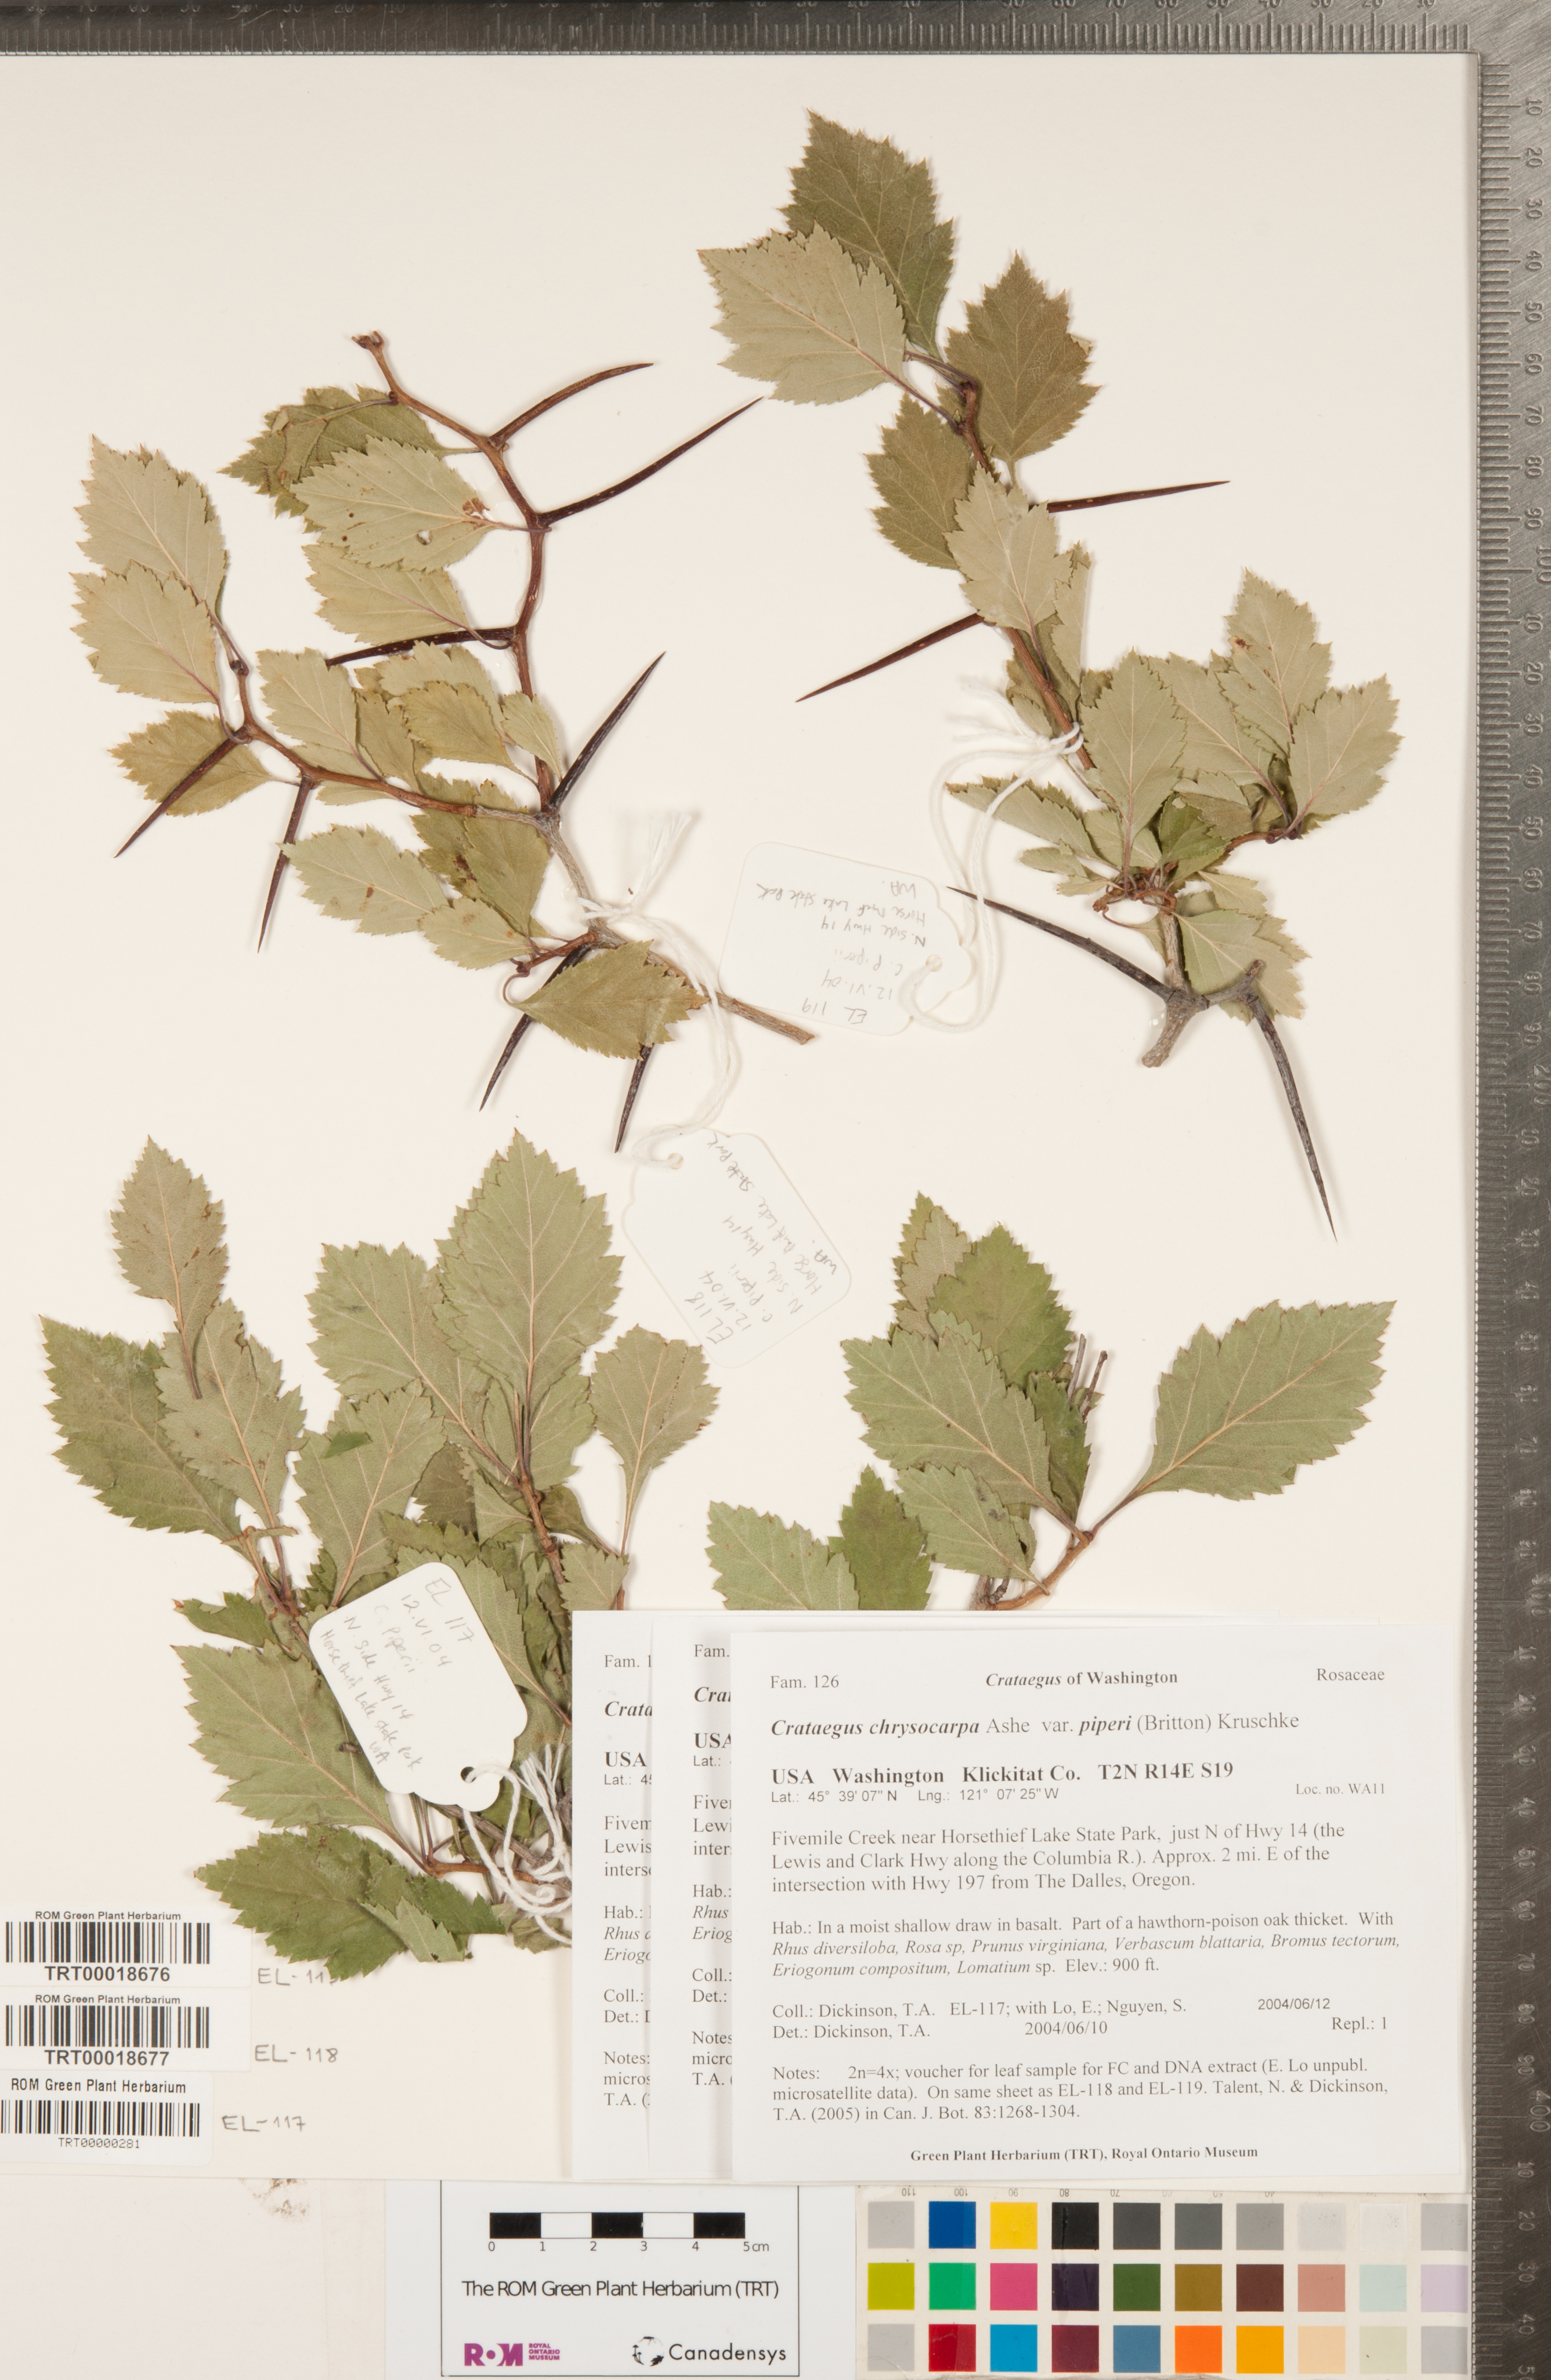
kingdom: Plantae
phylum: Tracheophyta
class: Magnoliopsida
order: Rosales
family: Rosaceae
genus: Crataegus
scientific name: Crataegus piperi
